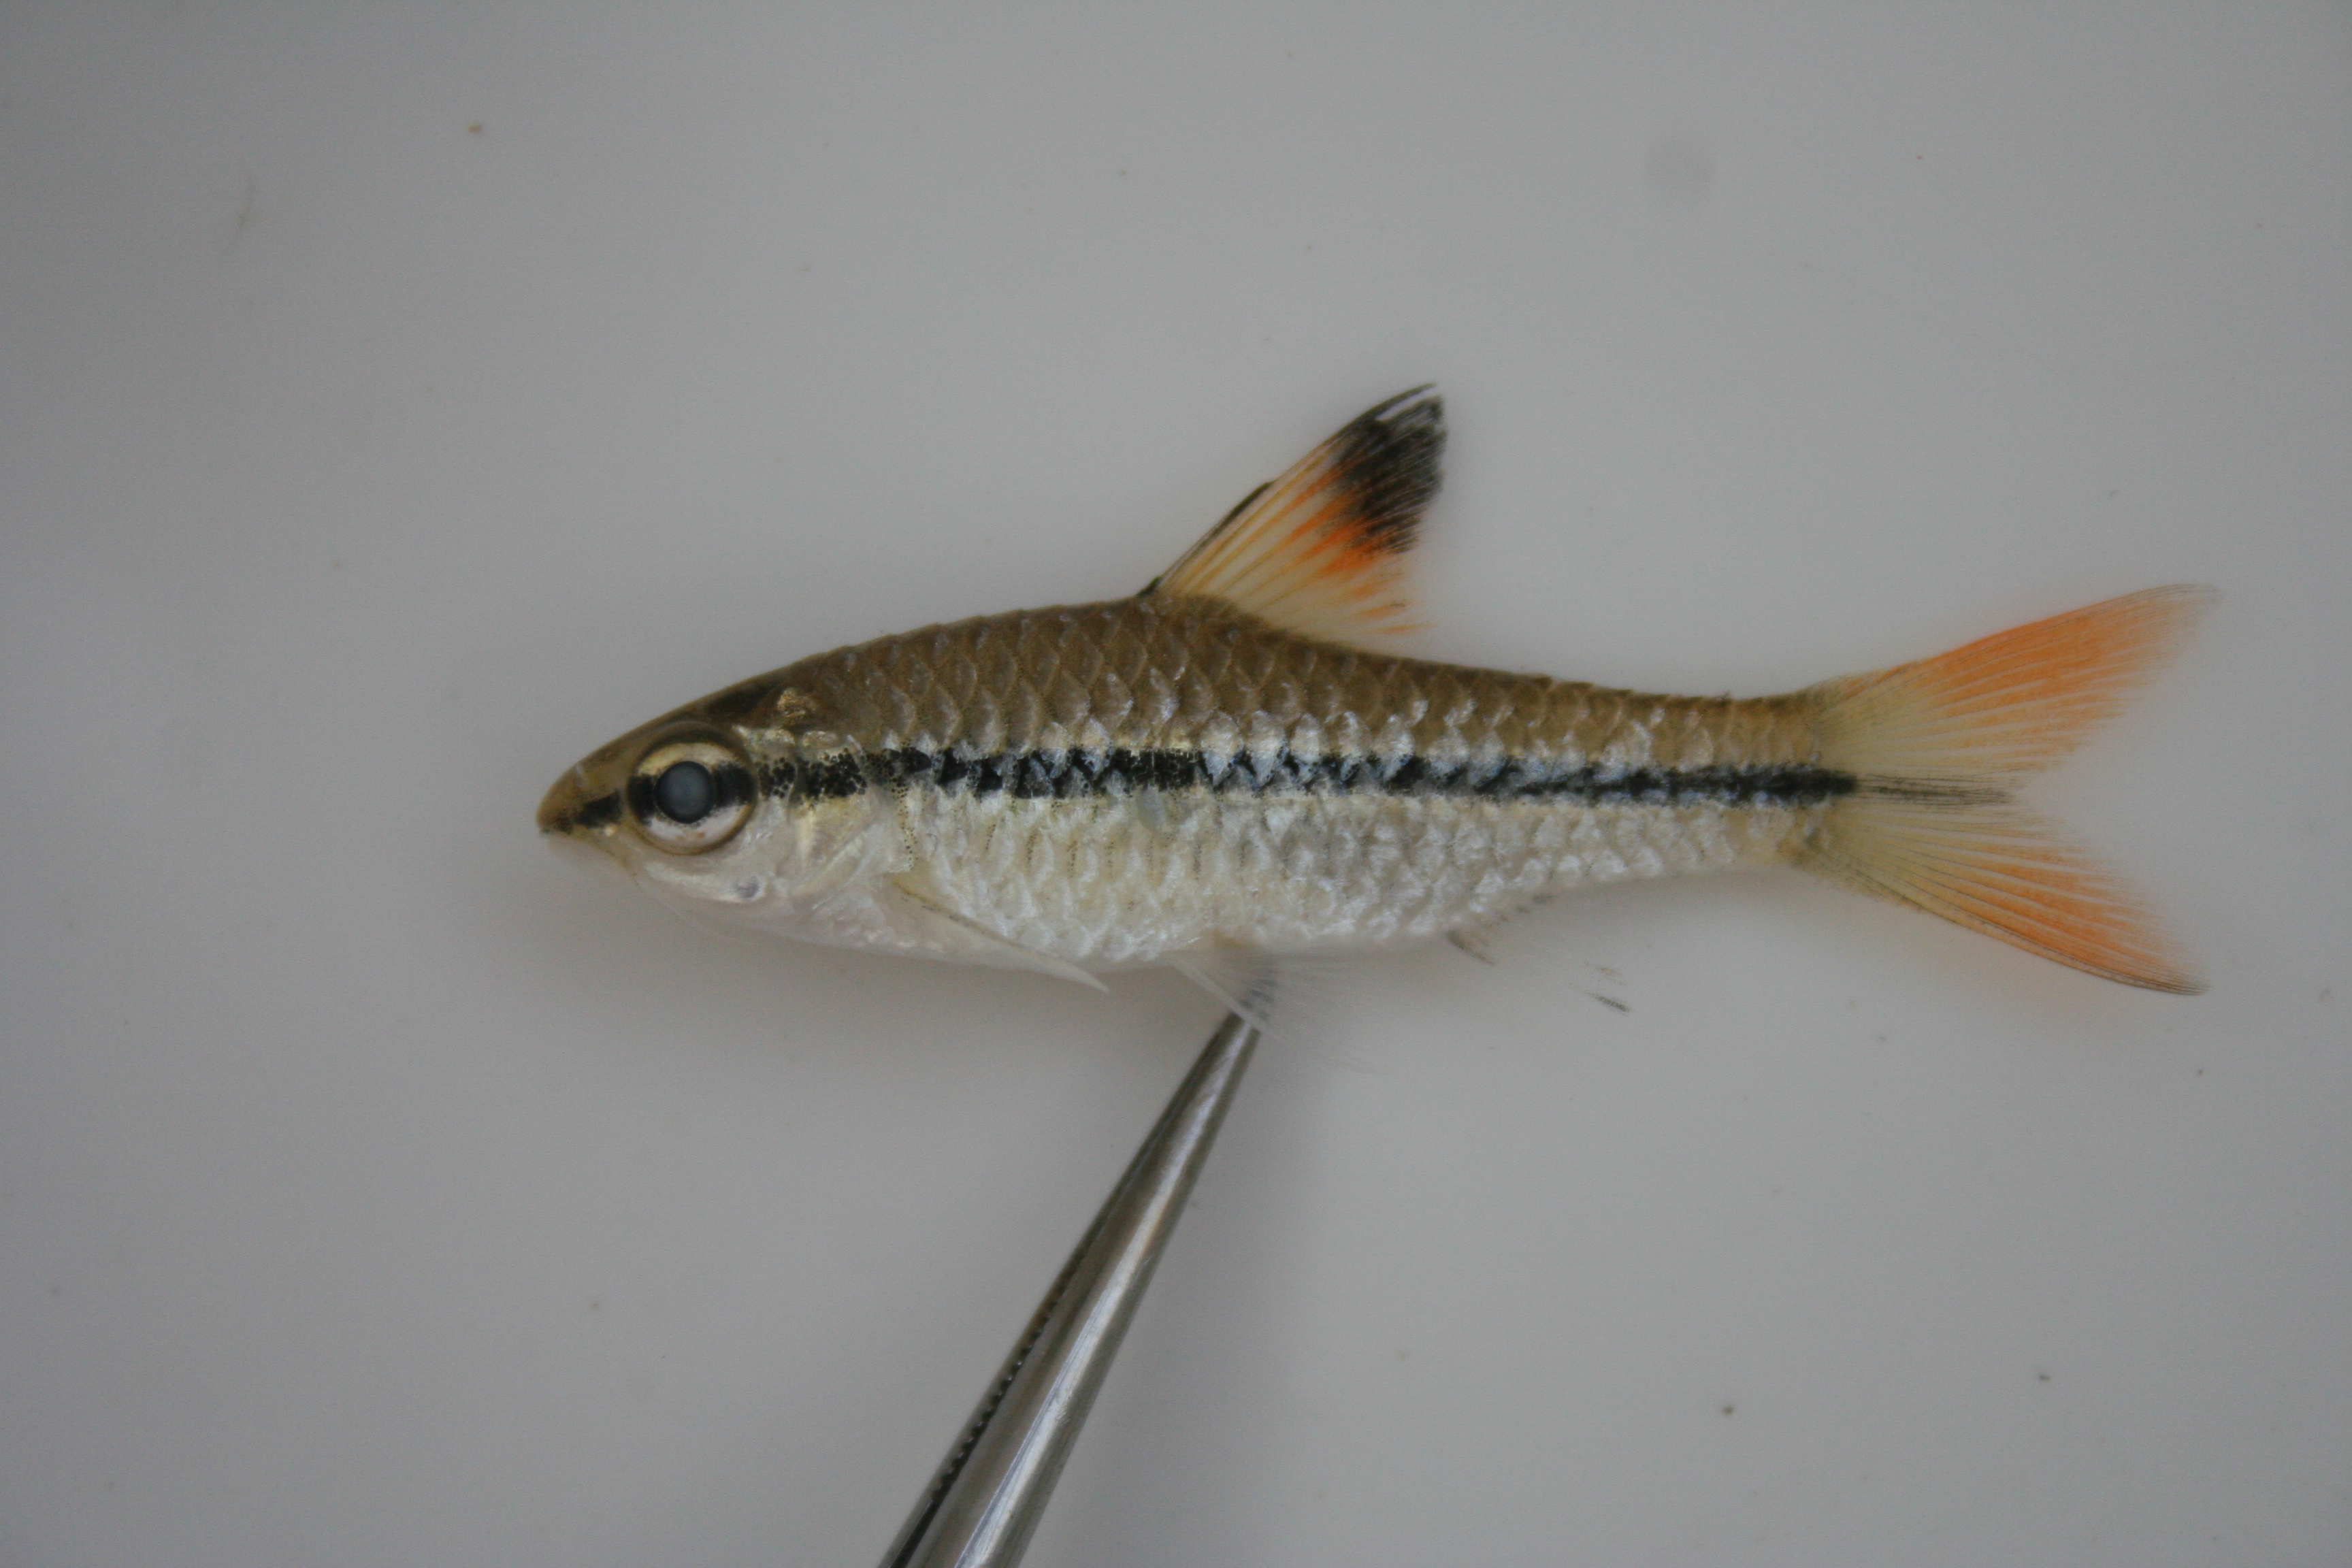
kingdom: Animalia
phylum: Chordata
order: Cypriniformes
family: Cyprinidae
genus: Enteromius
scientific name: Enteromius holotaenia
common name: Spotscale barb
